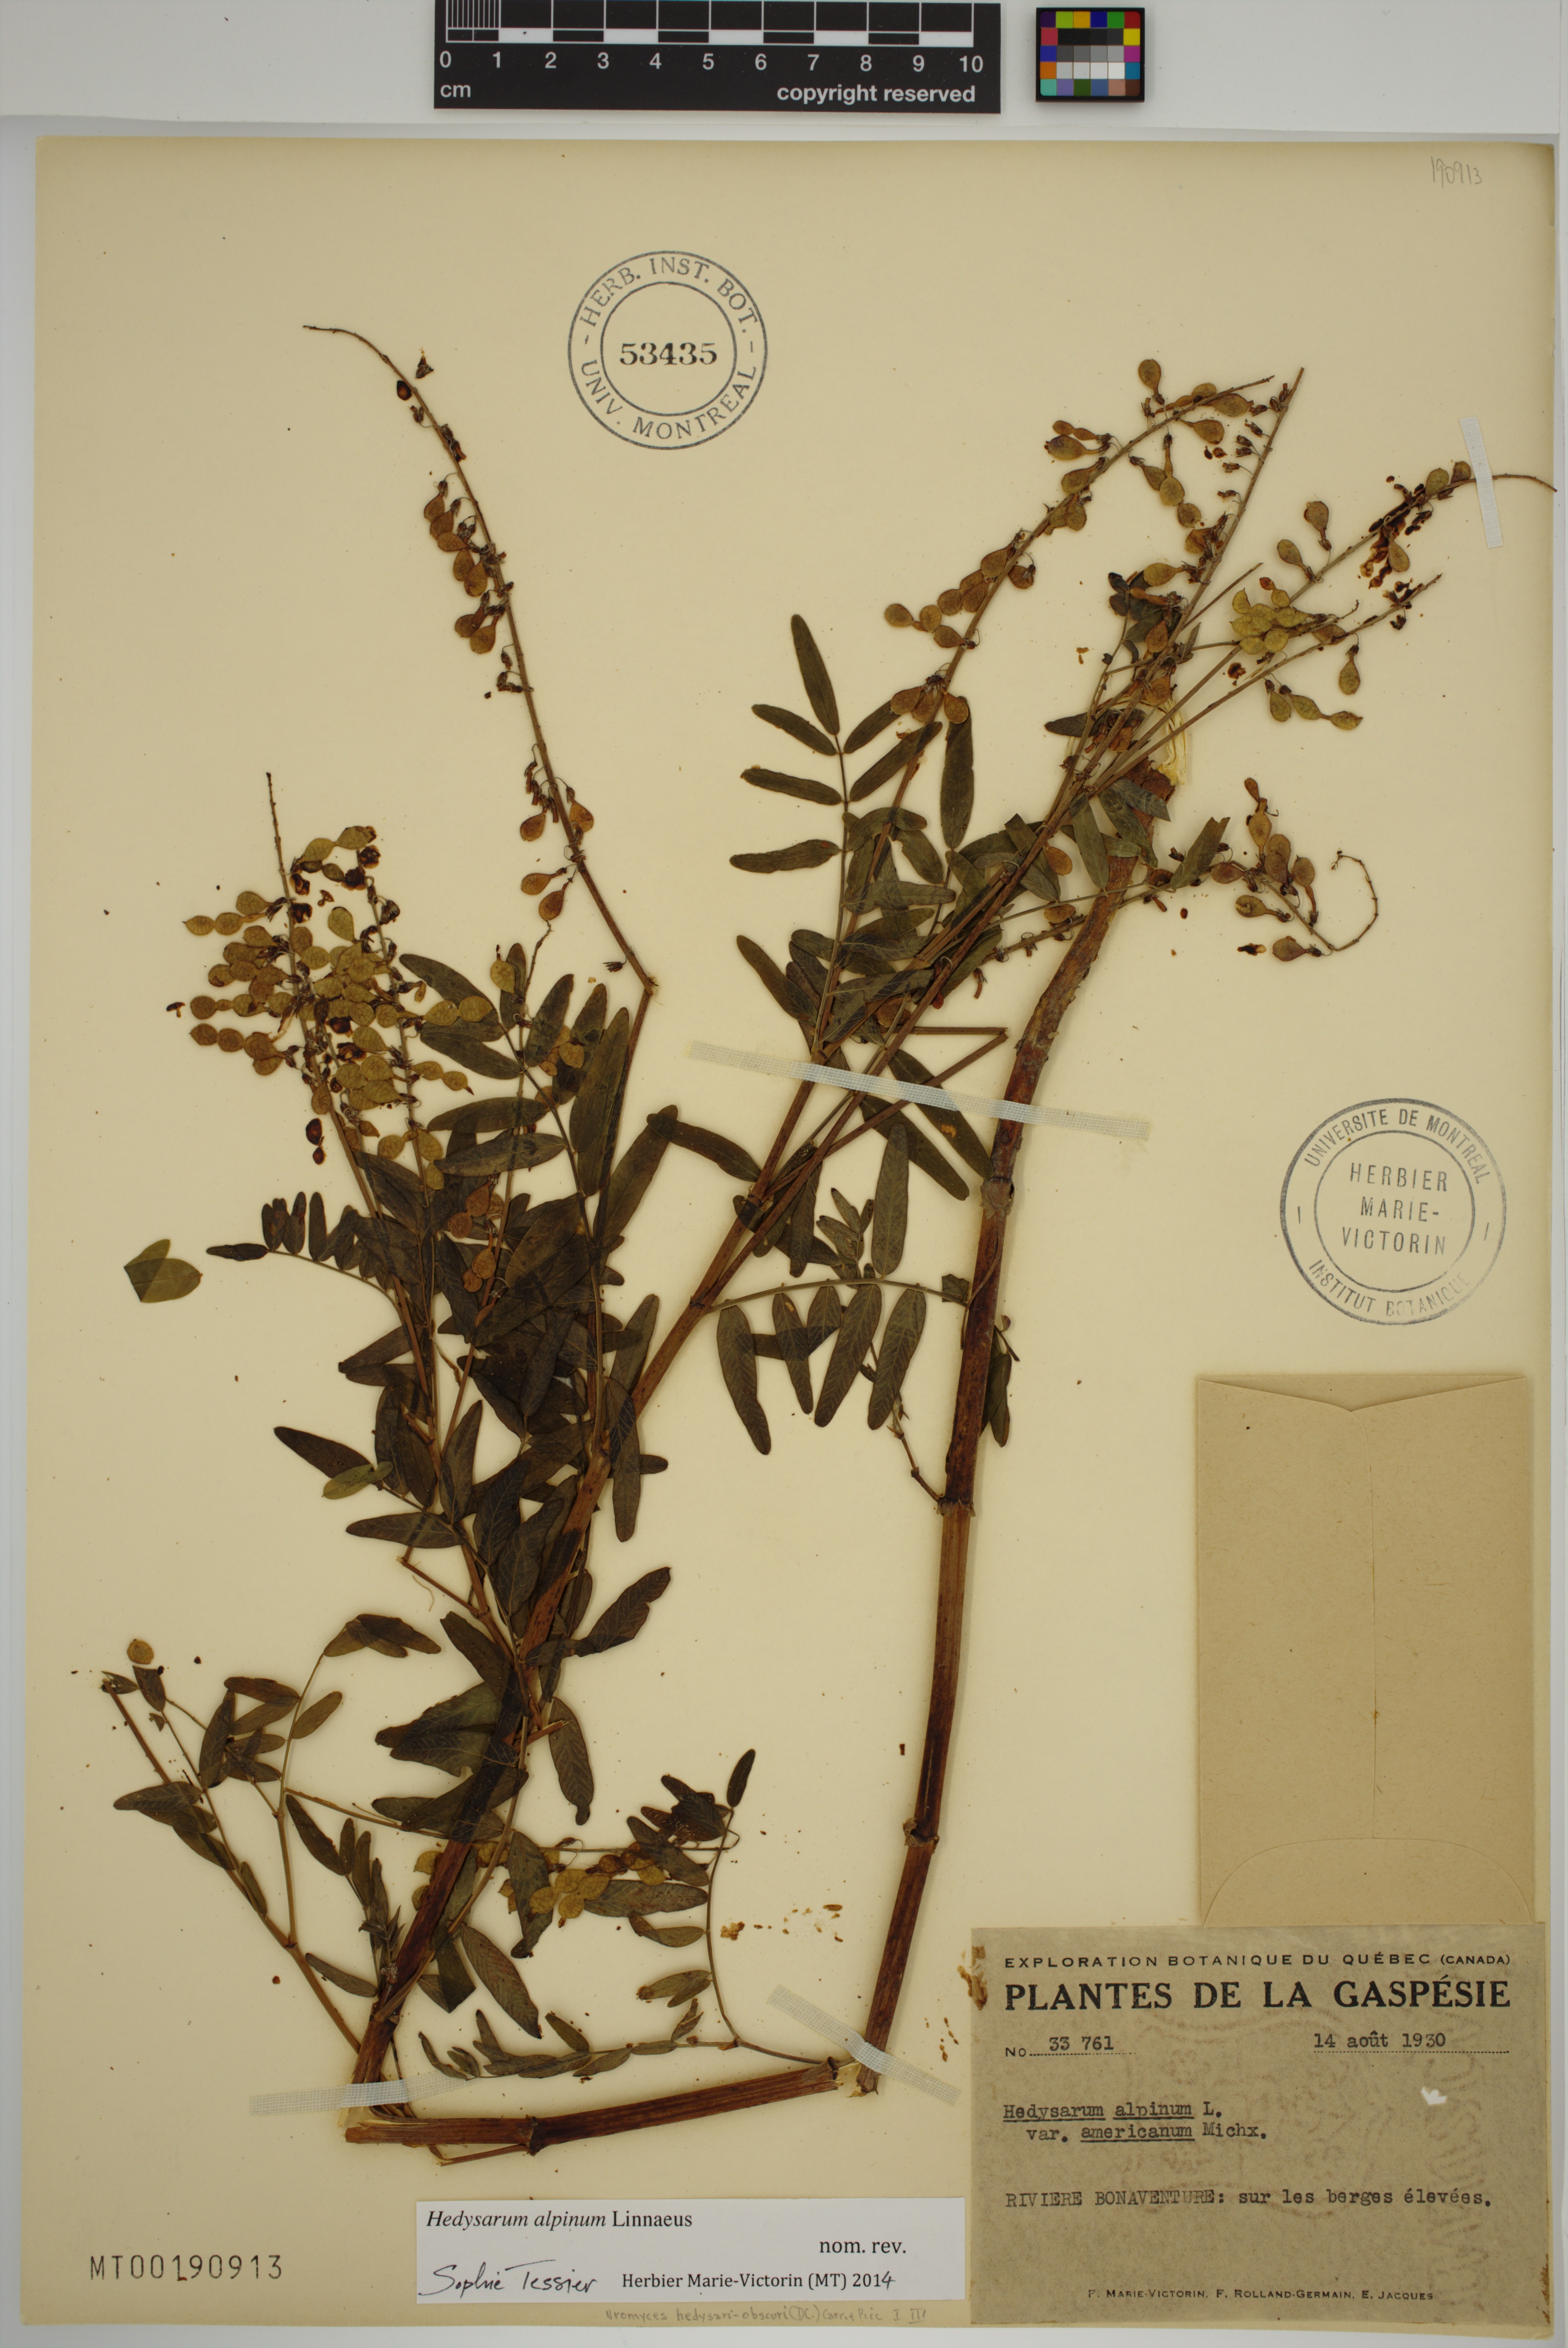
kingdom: Plantae
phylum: Tracheophyta
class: Magnoliopsida
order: Fabales
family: Fabaceae
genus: Hedysarum
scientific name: Hedysarum alpinum
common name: Alpine sweet-vetch
